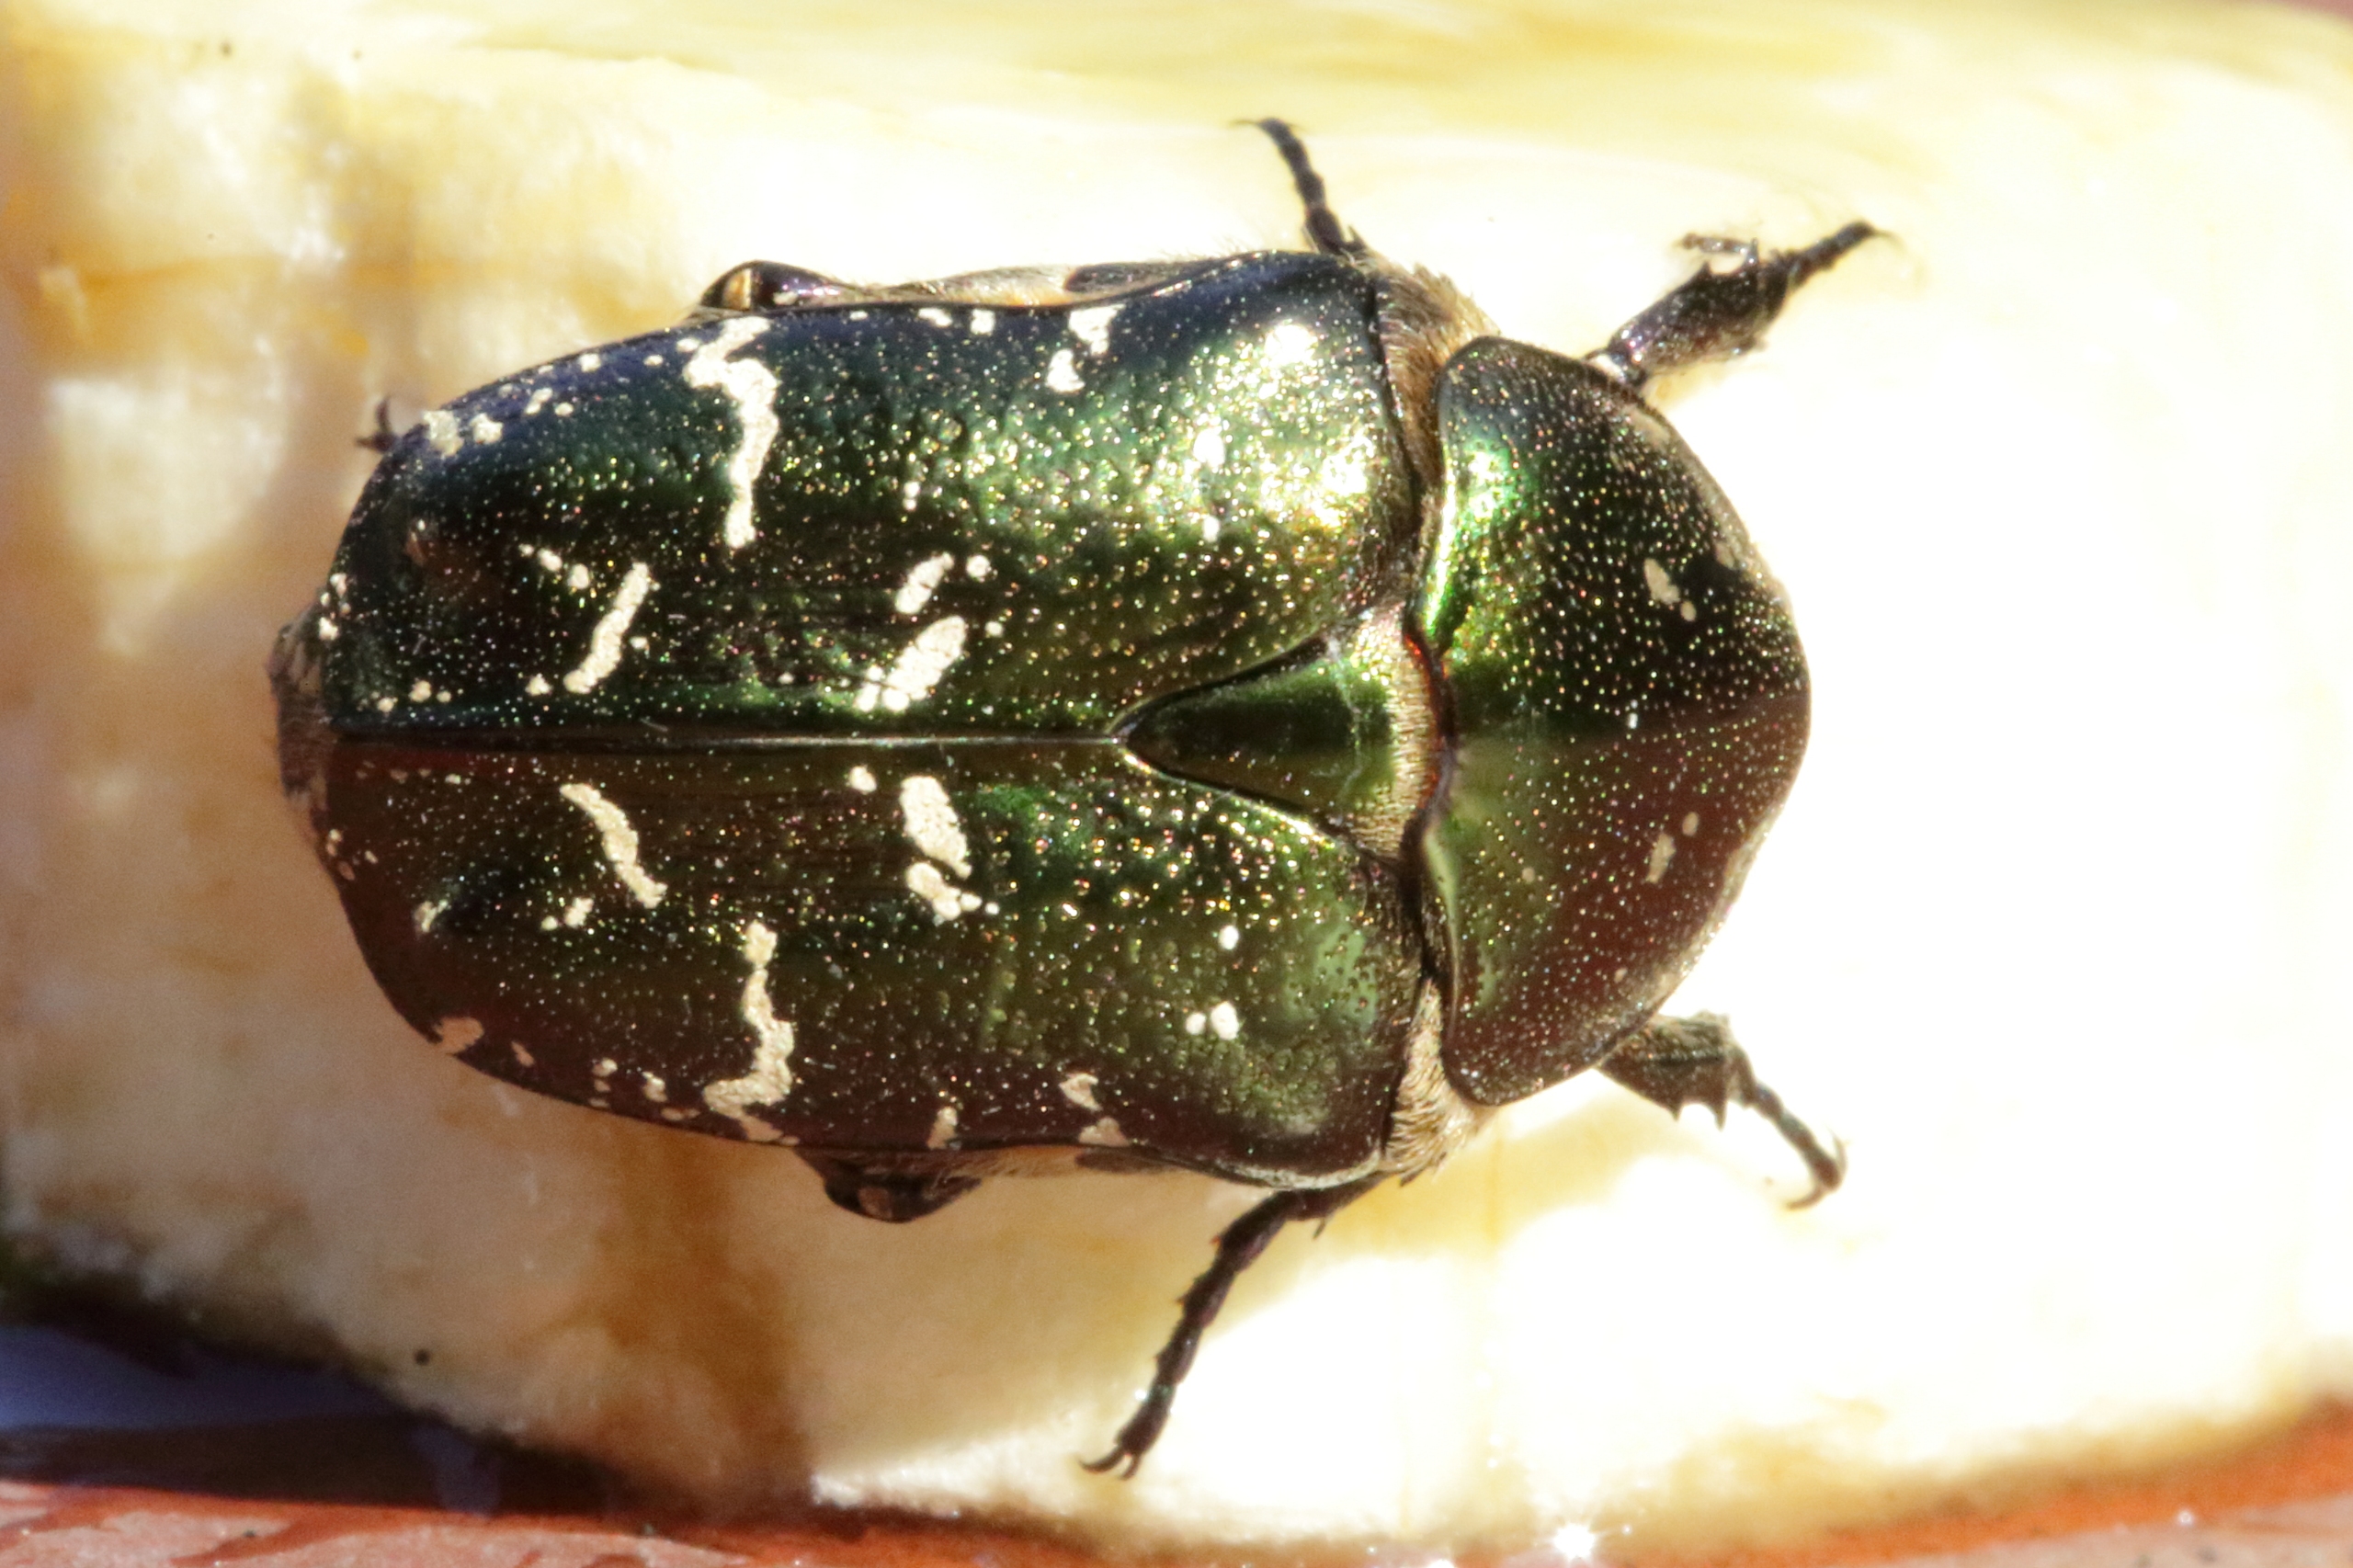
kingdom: Animalia
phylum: Arthropoda
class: Insecta
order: Coleoptera
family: Scarabaeidae
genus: Protaetia
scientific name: Protaetia cuprea
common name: Kobberguldbasse
